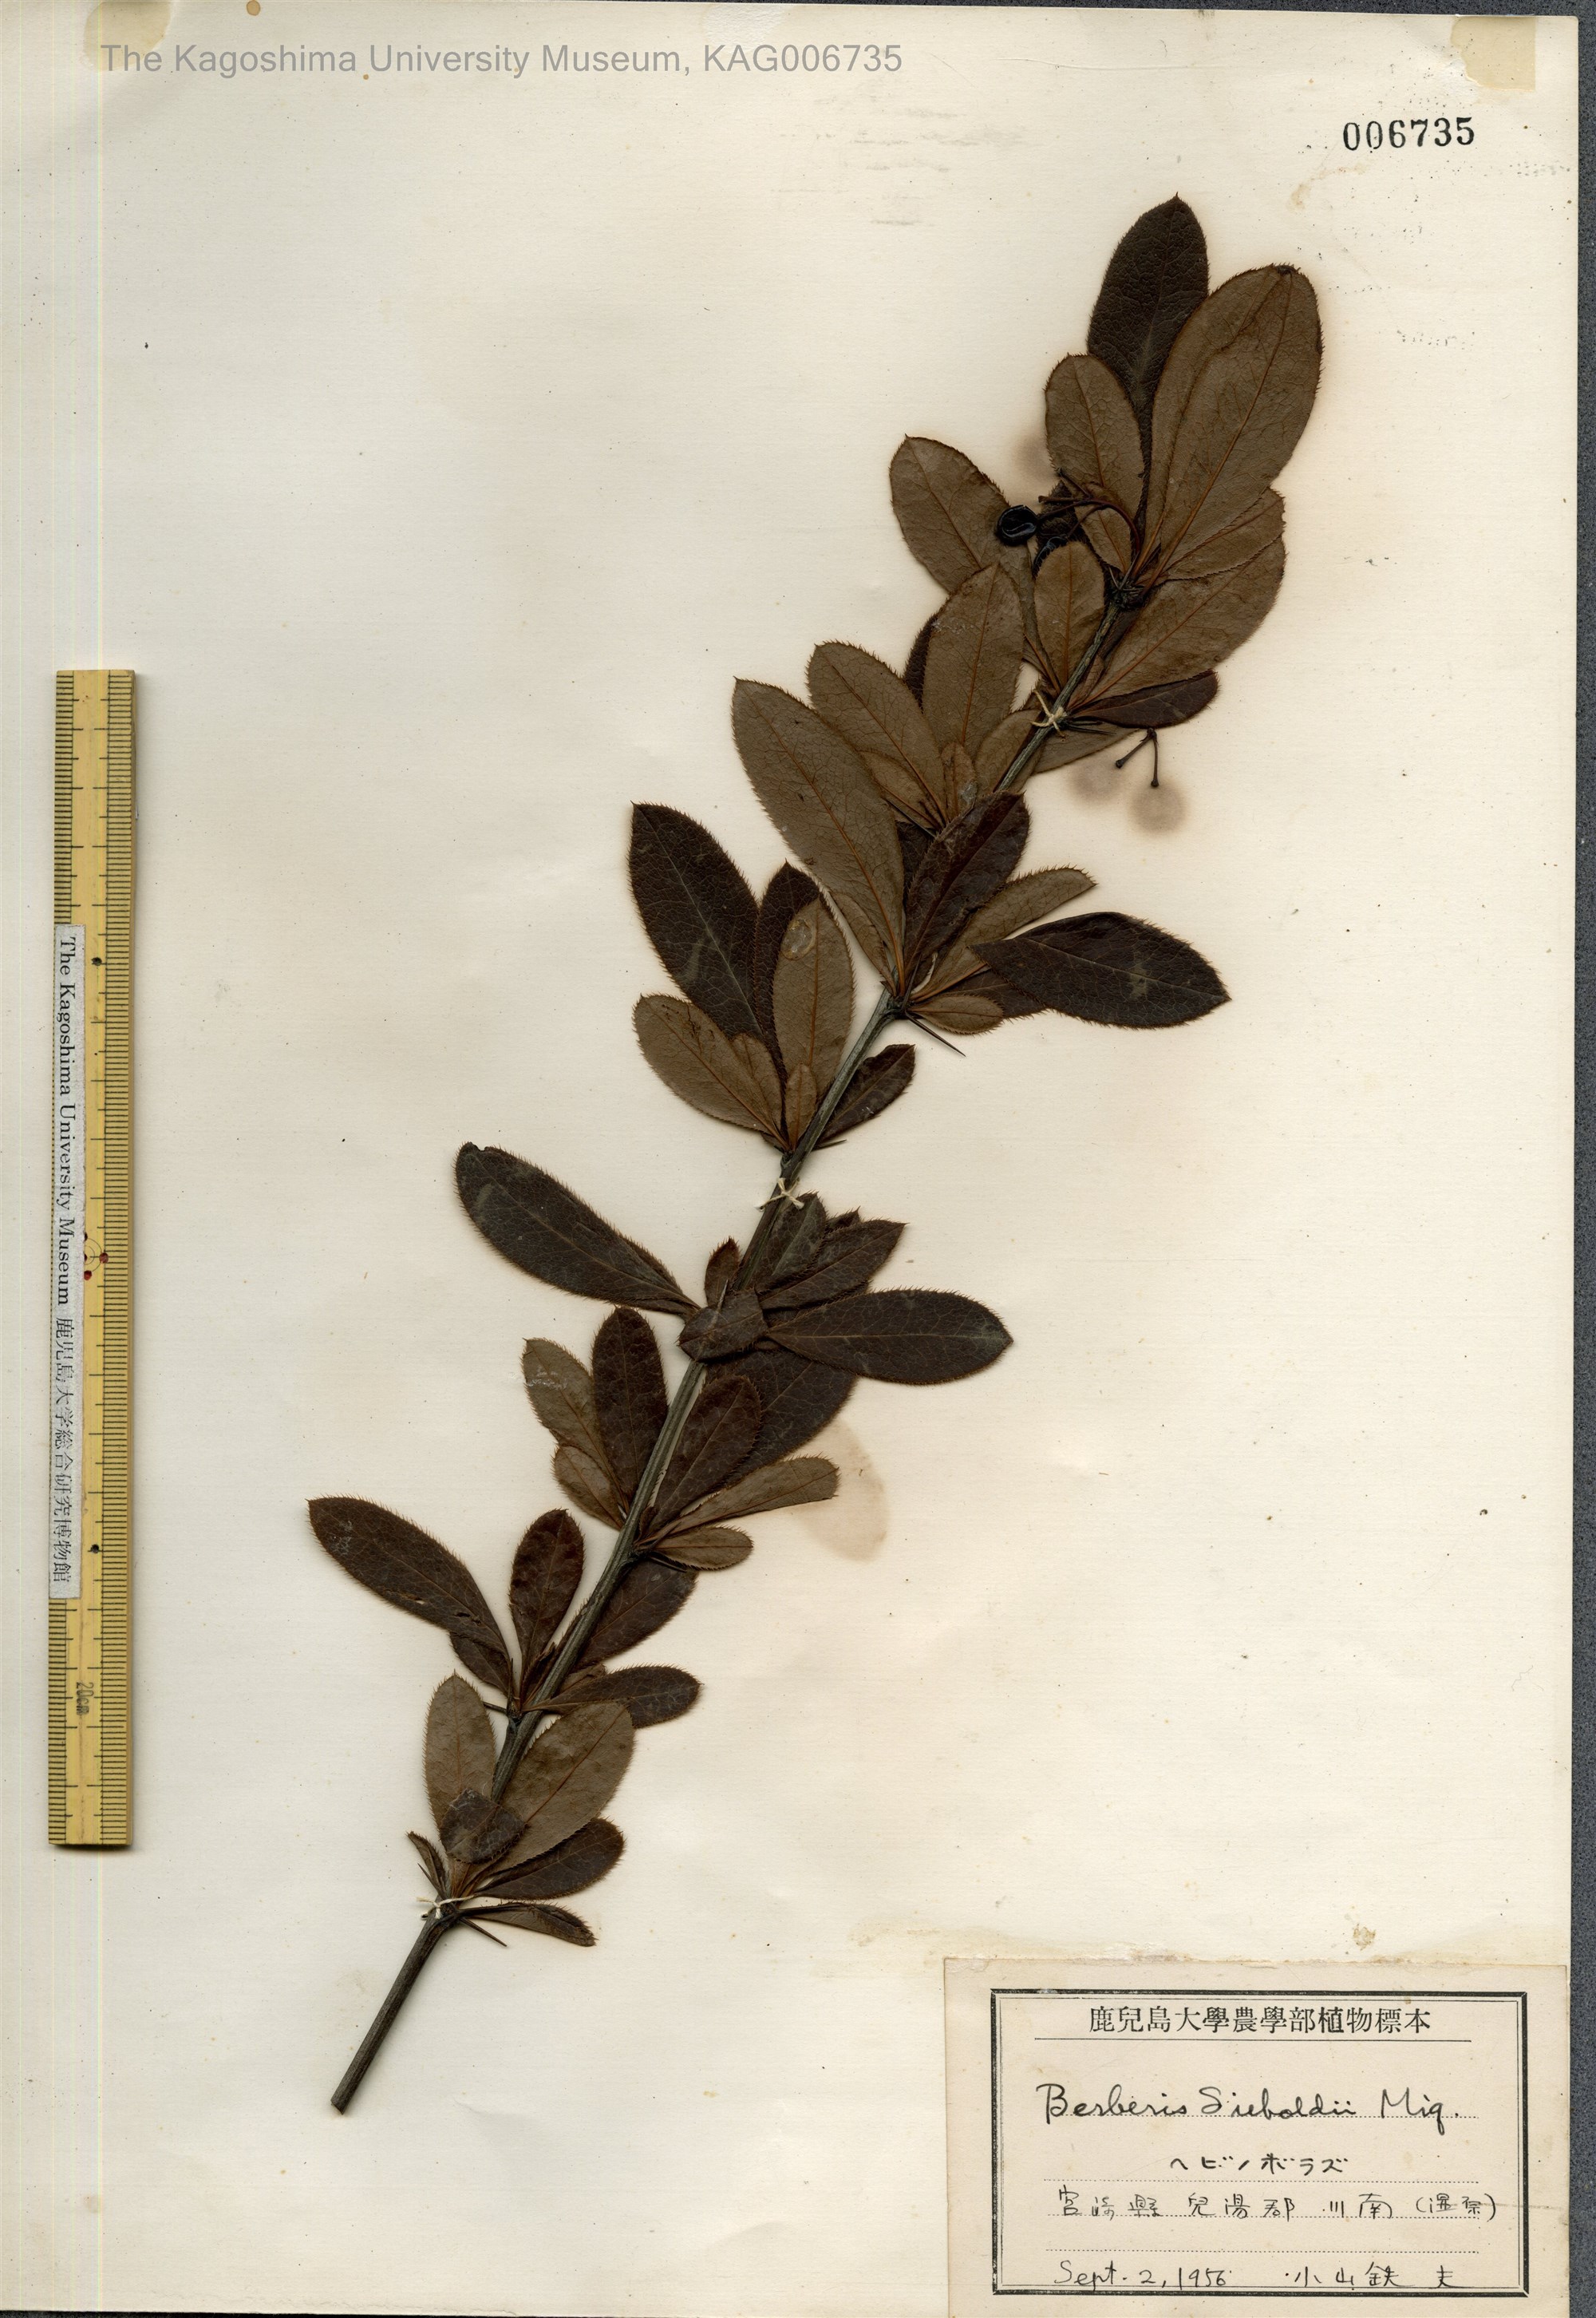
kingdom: Plantae
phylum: Tracheophyta
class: Magnoliopsida
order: Ranunculales
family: Berberidaceae
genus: Berberis
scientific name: Berberis sieboldii
